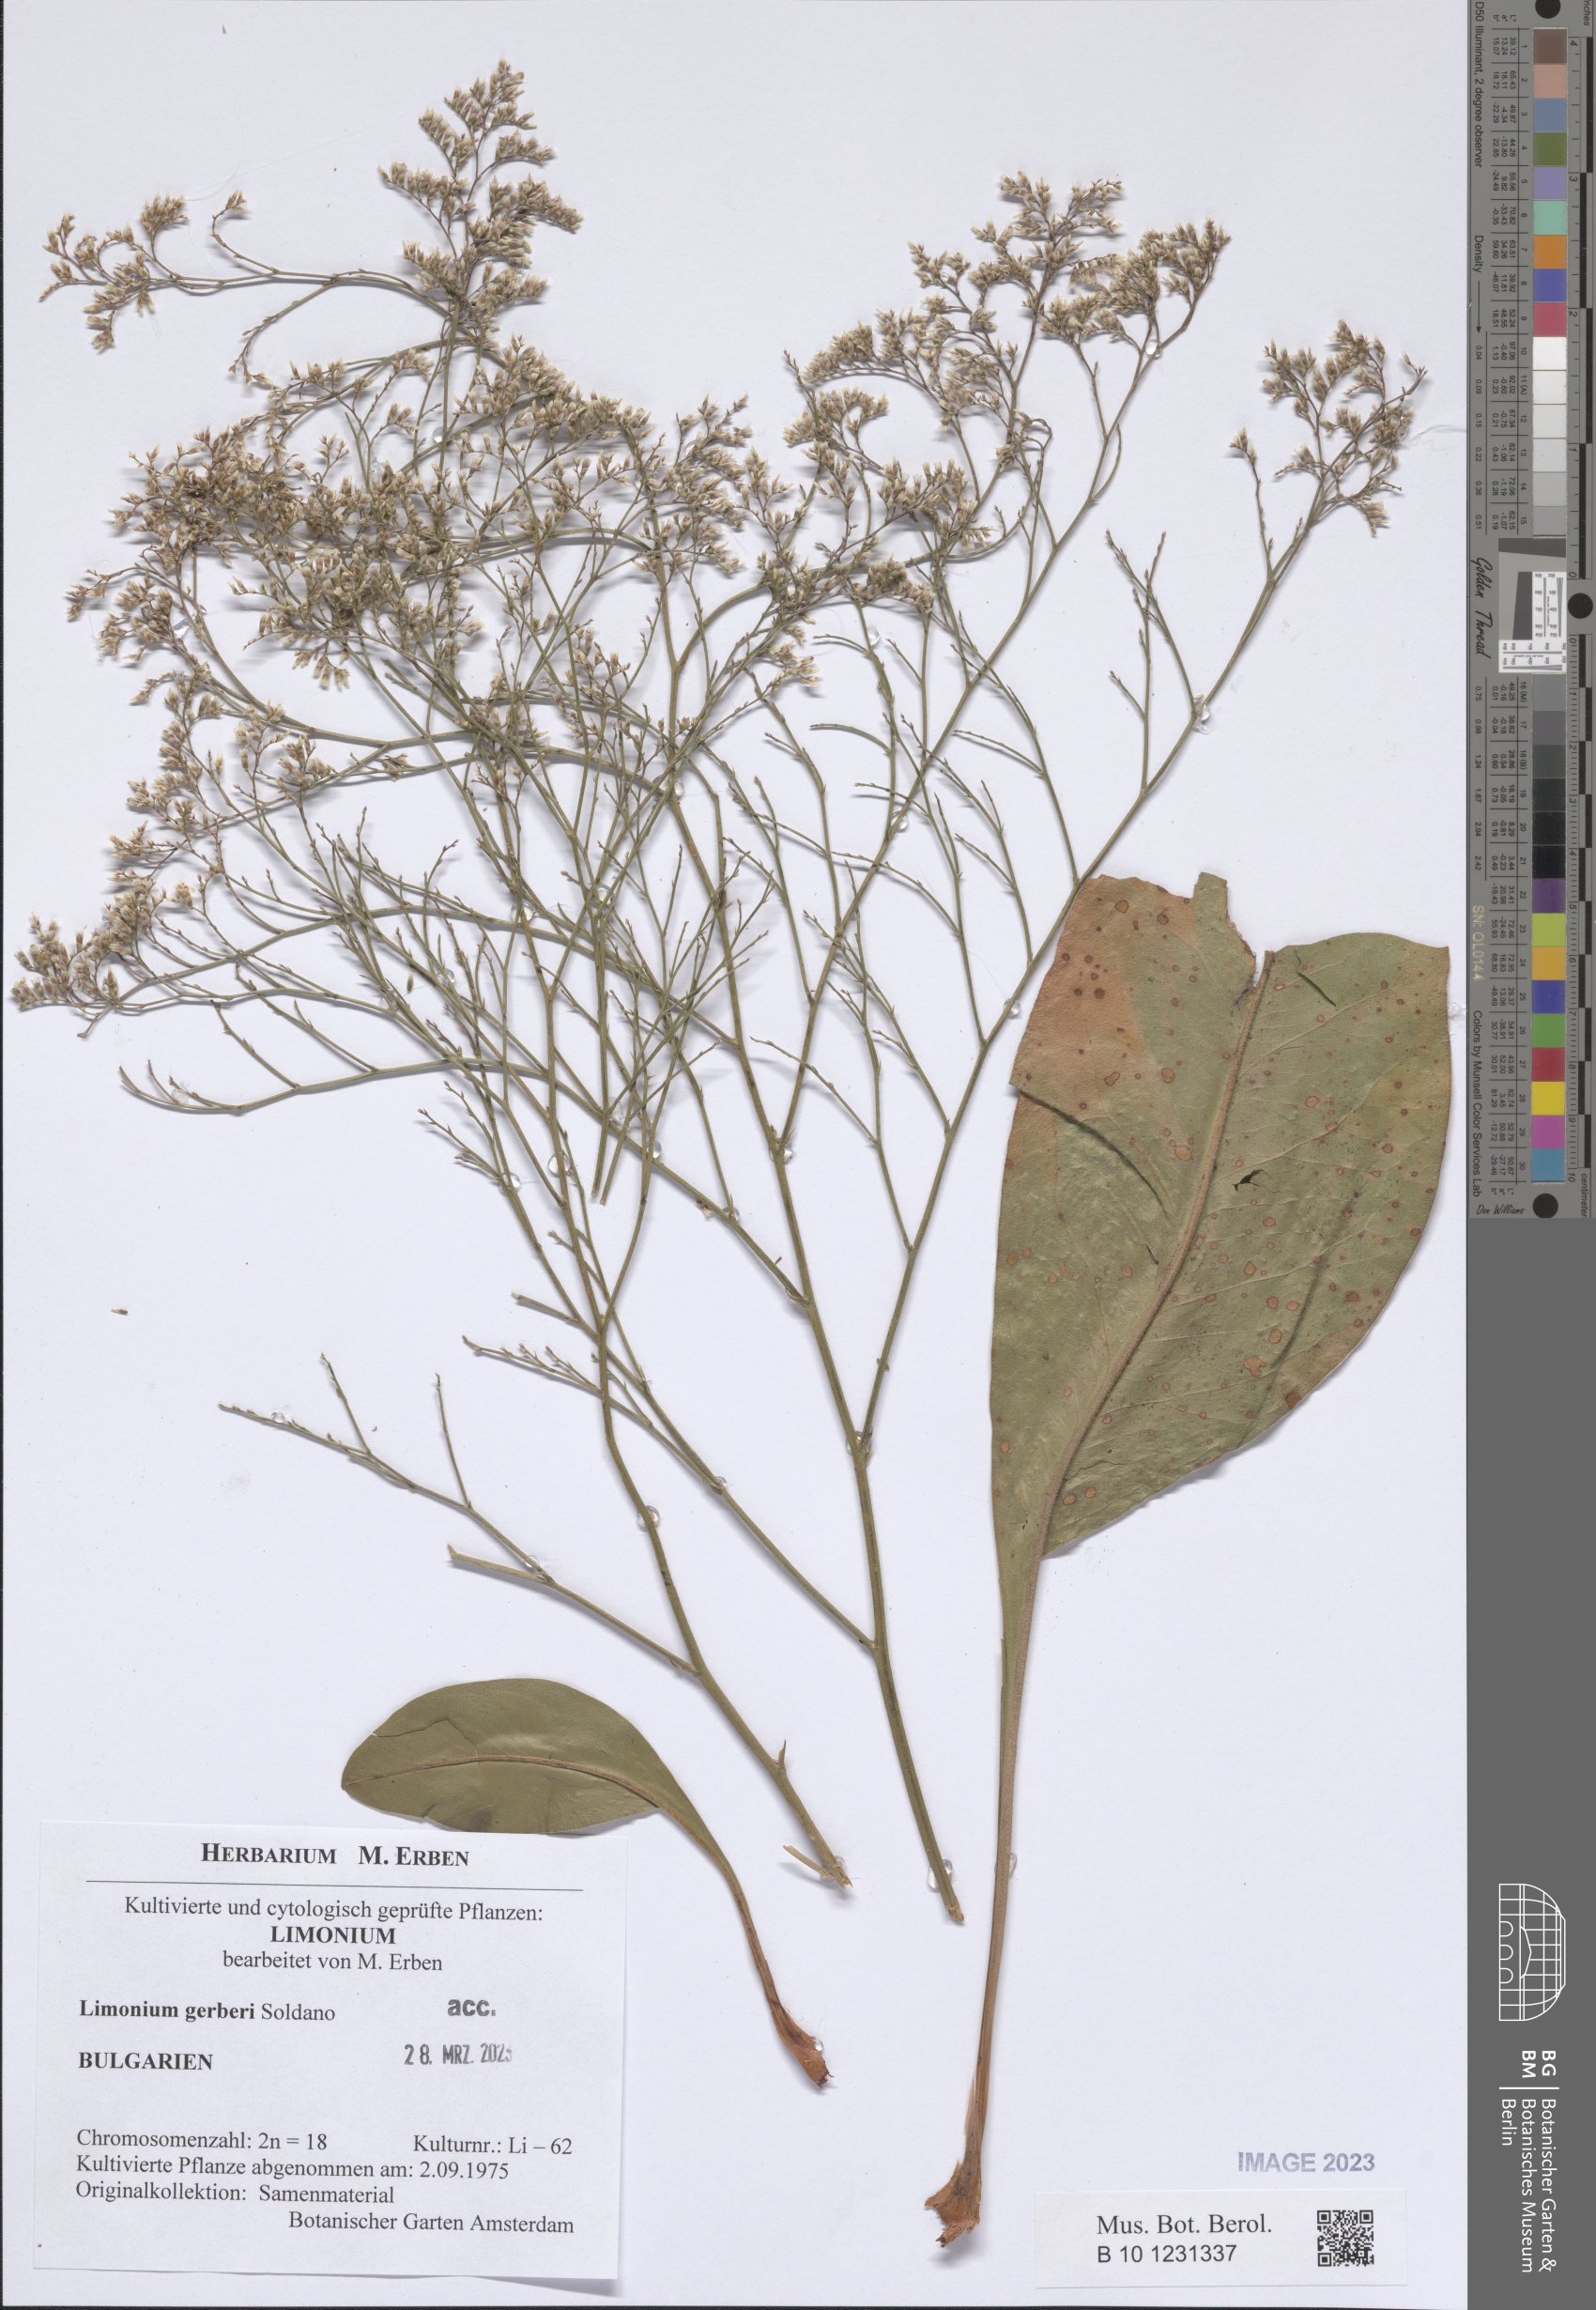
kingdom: Plantae
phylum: Tracheophyta
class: Magnoliopsida
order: Caryophyllales
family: Plumbaginaceae
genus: Limonium
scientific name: Limonium platyphyllum
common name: Florist's sea lavender
